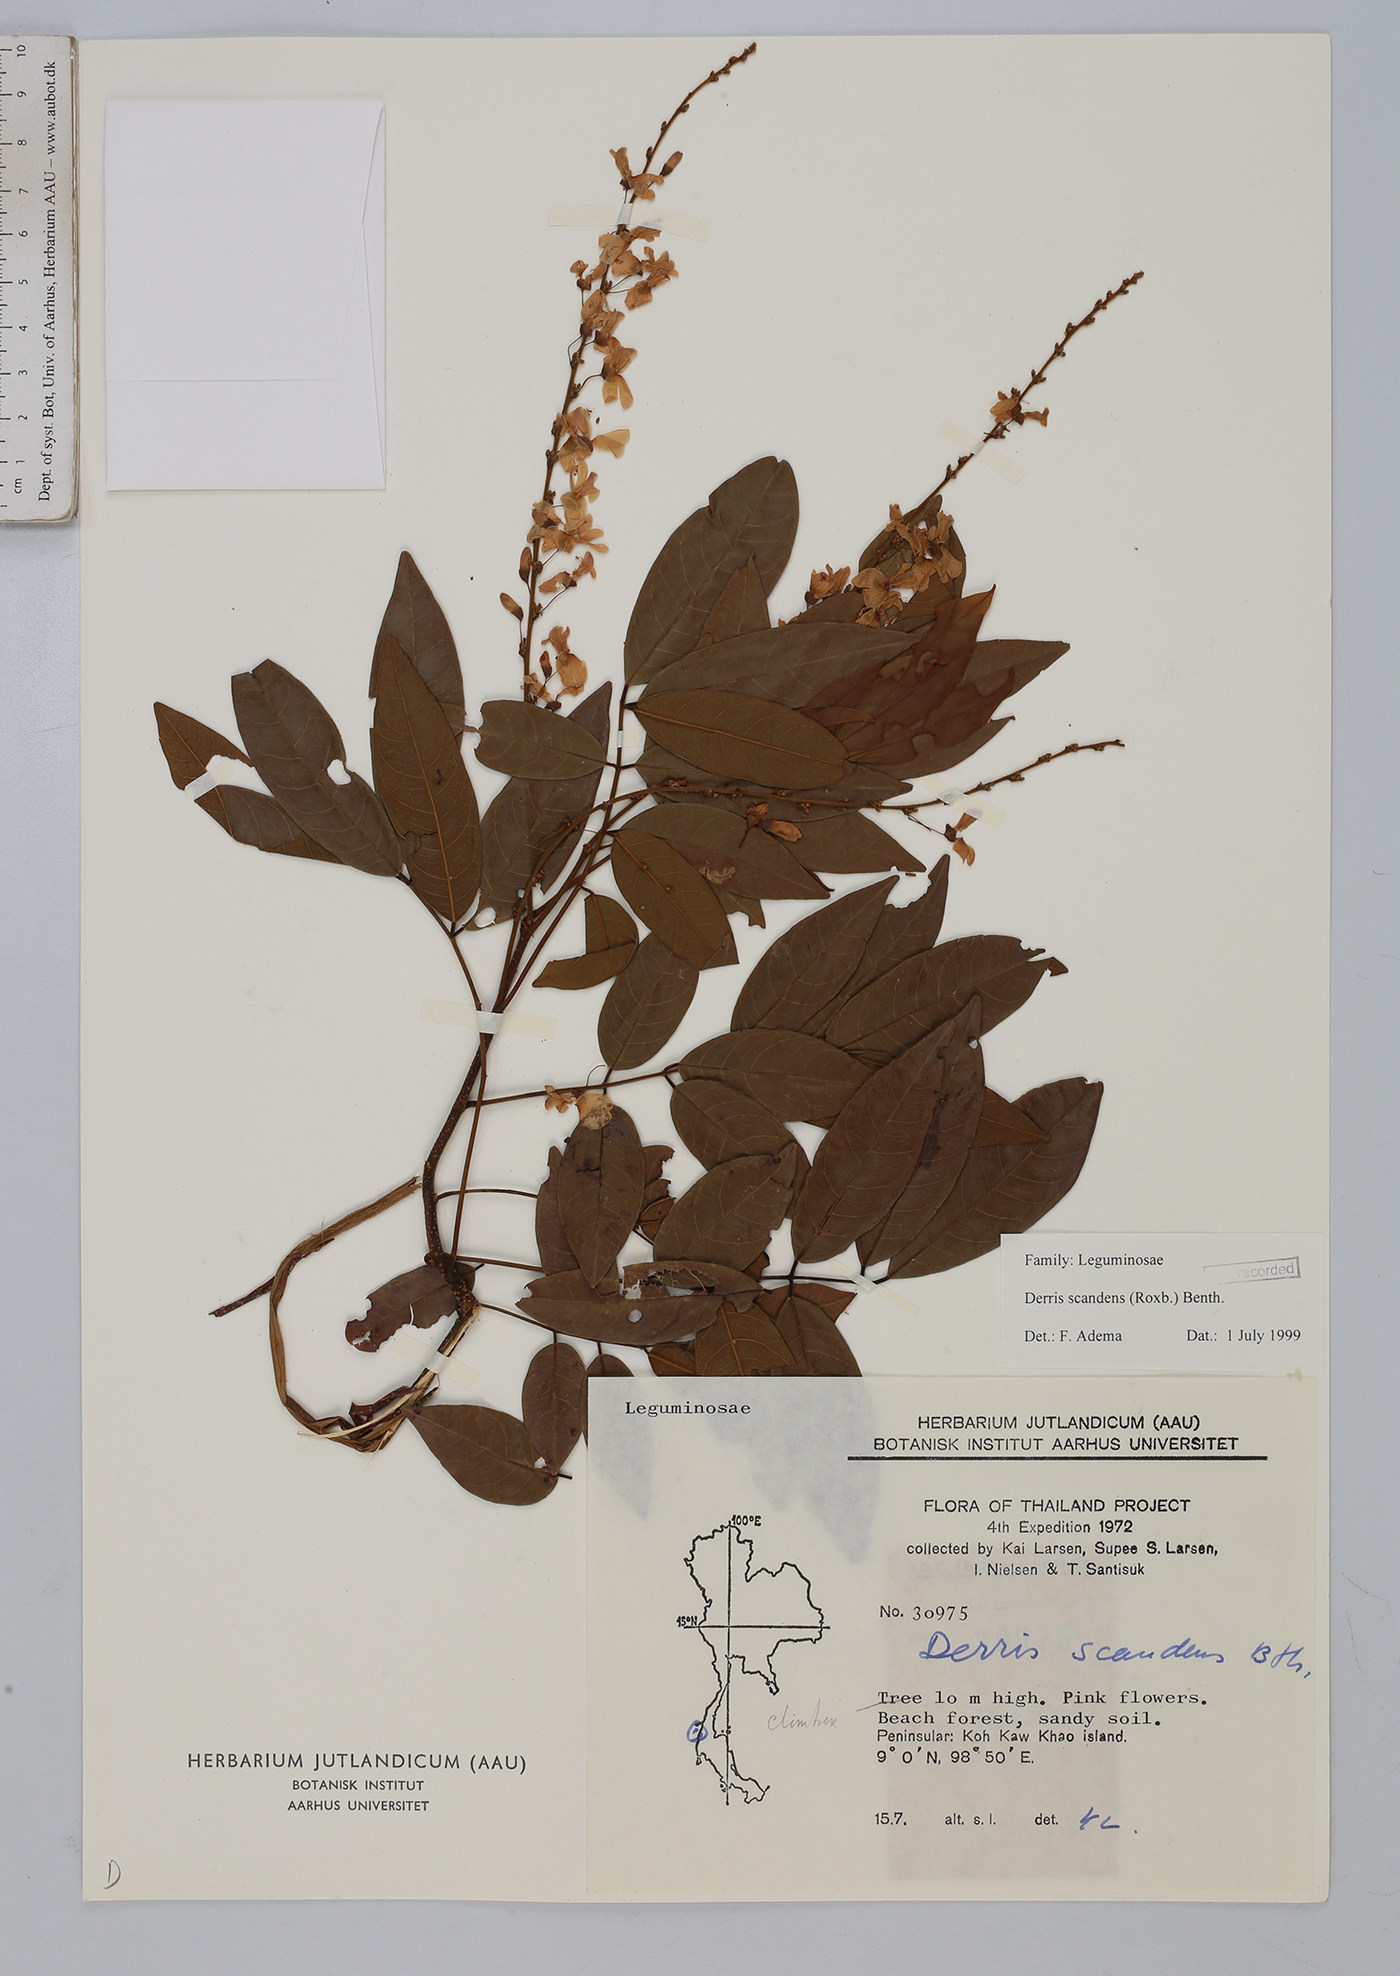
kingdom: Plantae
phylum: Tracheophyta
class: Magnoliopsida
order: Fabales
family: Fabaceae
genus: Brachypterum
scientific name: Brachypterum scandens
